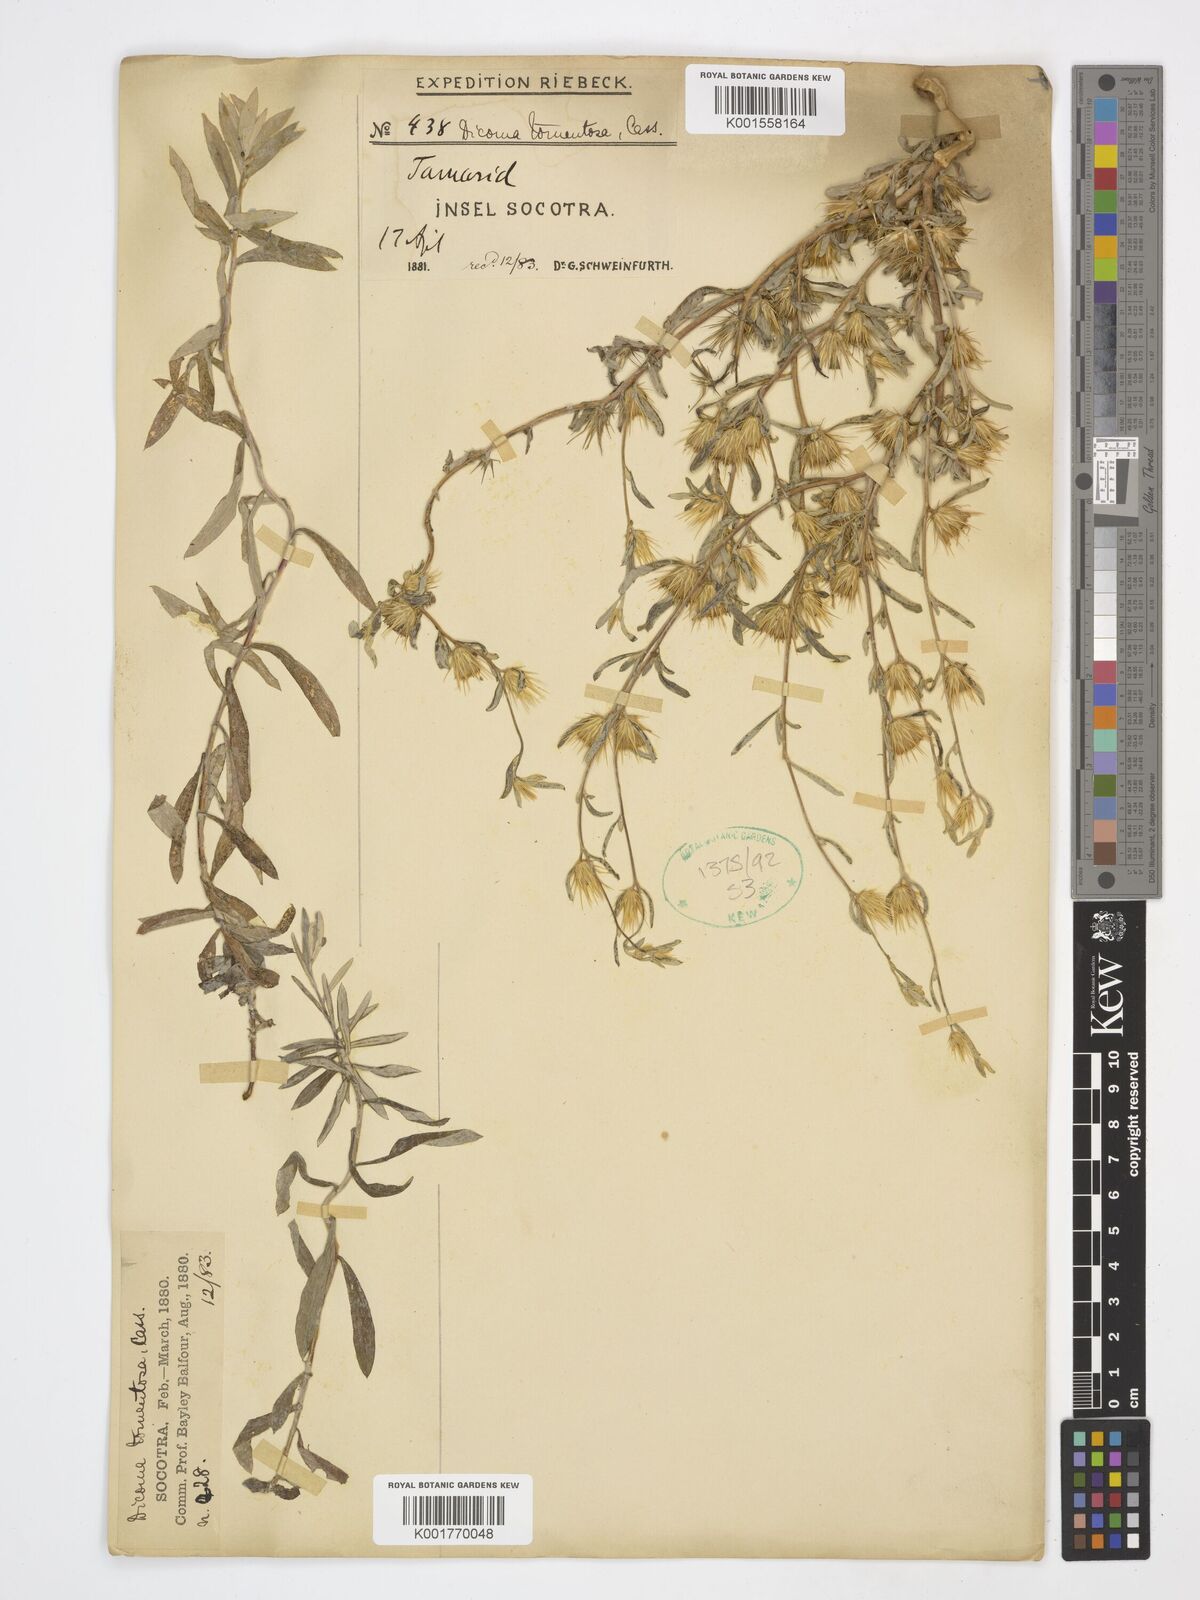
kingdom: Plantae
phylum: Tracheophyta
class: Magnoliopsida
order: Asterales
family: Asteraceae
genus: Dicoma
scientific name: Dicoma tomentosa
